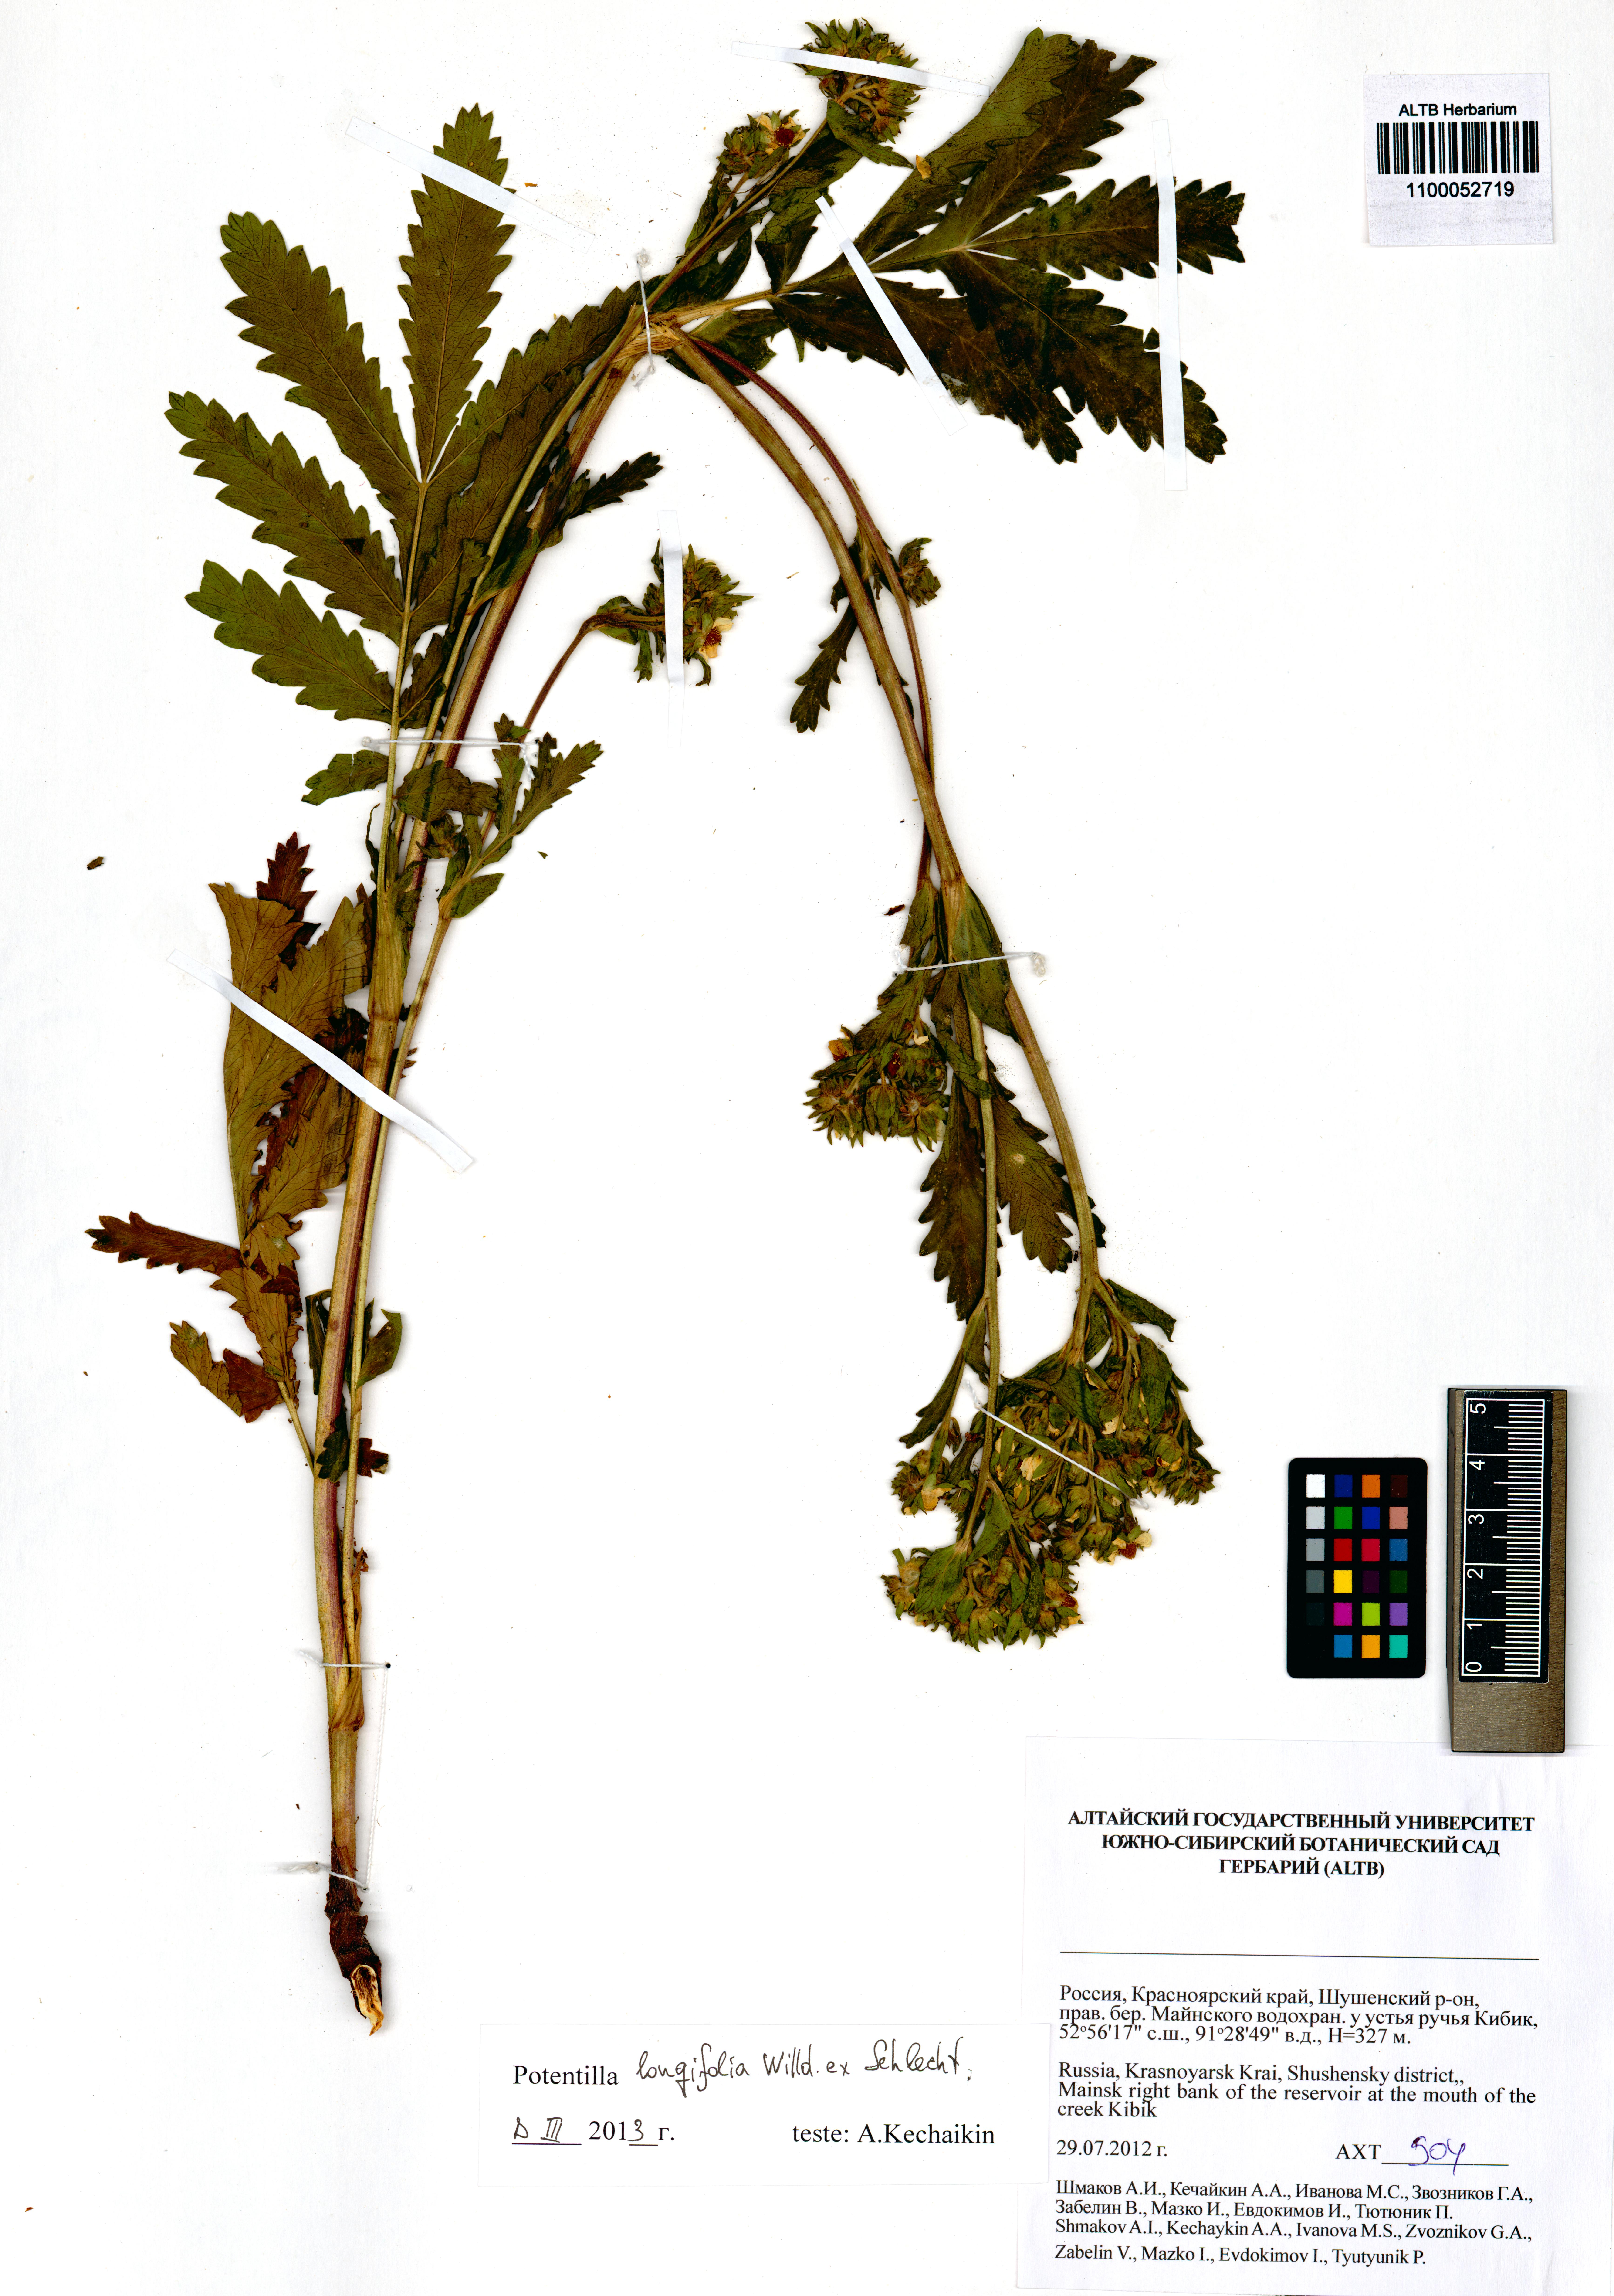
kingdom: Plantae
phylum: Tracheophyta
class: Magnoliopsida
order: Rosales
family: Rosaceae
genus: Potentilla
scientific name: Potentilla longifolia
